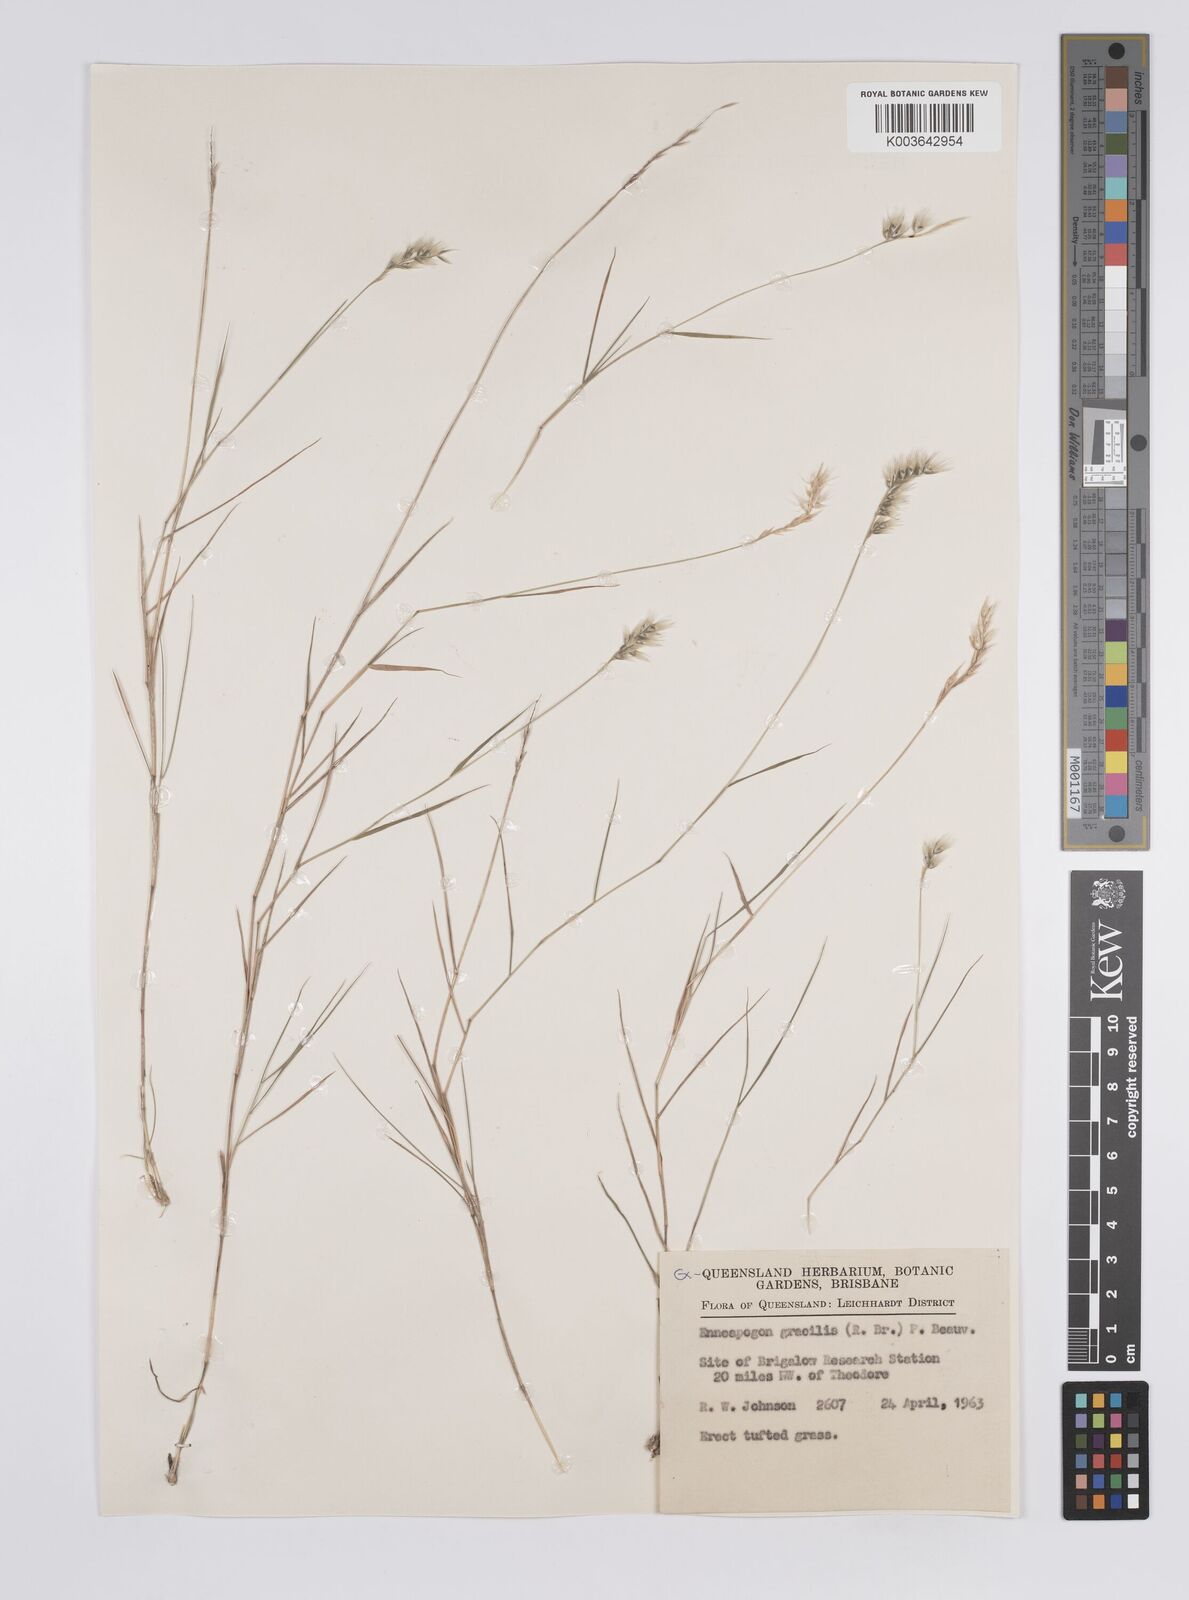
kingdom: Plantae
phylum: Tracheophyta
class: Liliopsida
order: Poales
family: Poaceae
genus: Enneapogon
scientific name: Enneapogon gracilis
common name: Slender bottle-washers
